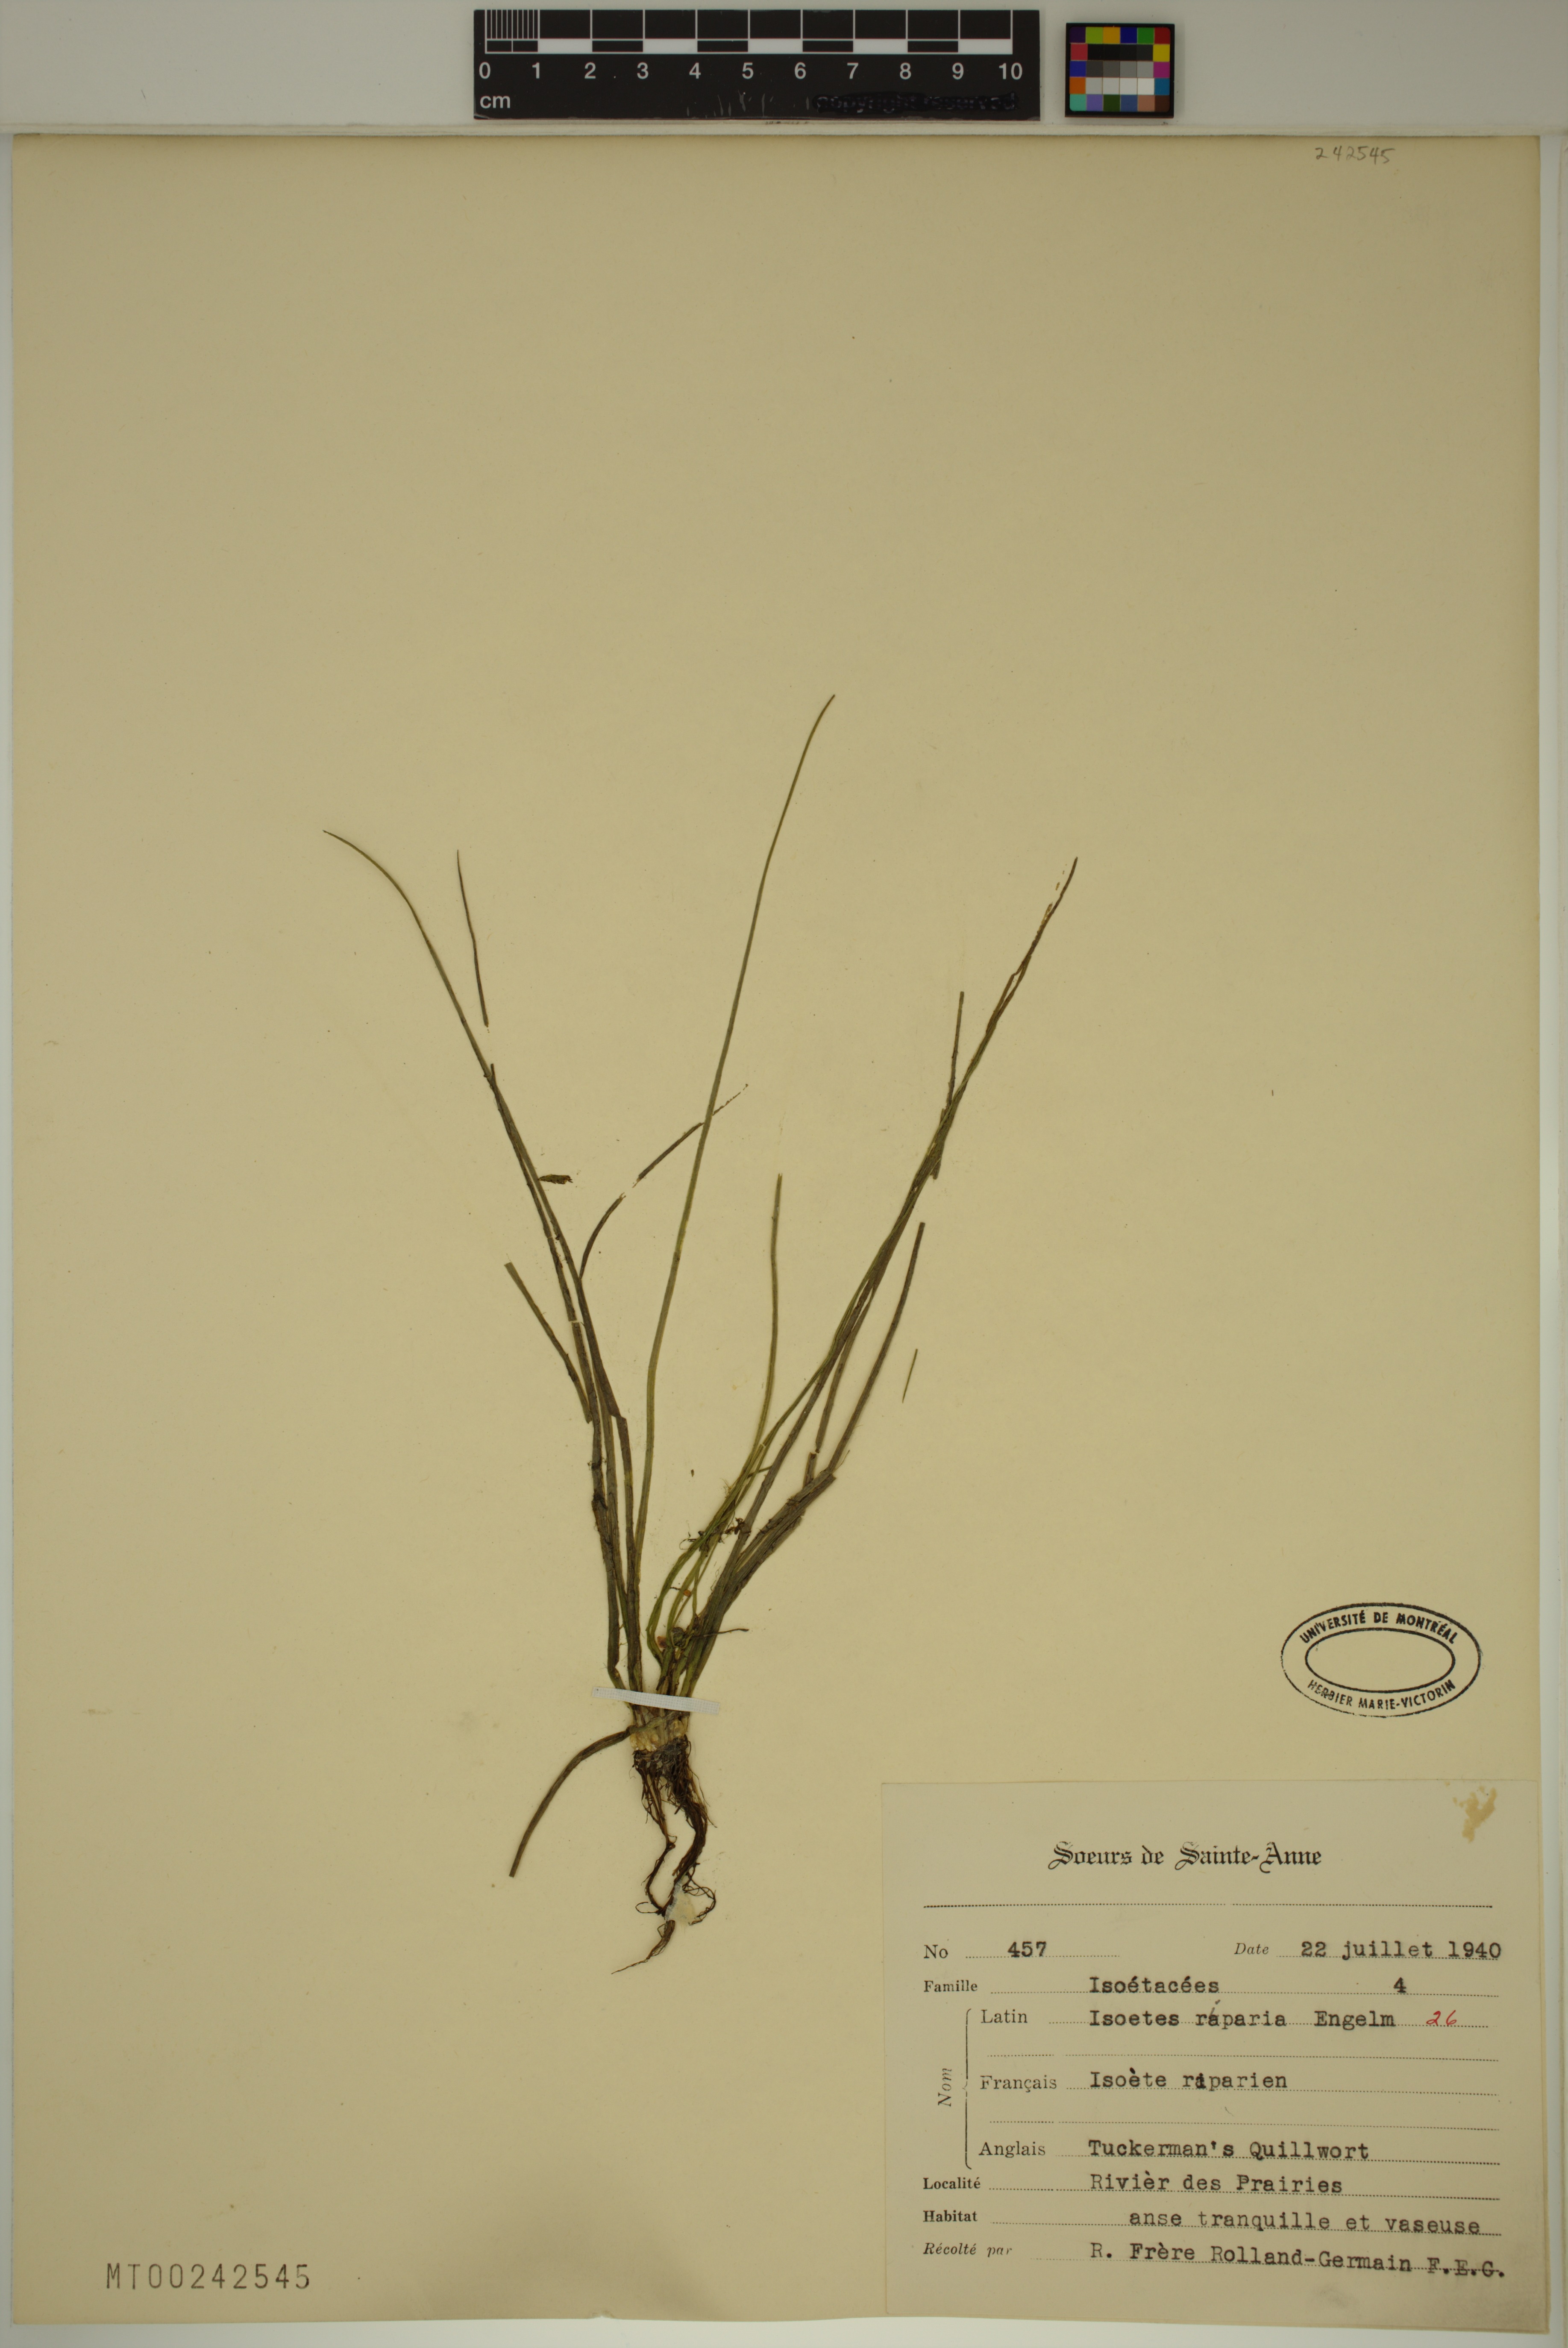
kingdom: Plantae
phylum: Tracheophyta
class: Lycopodiopsida
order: Isoetales
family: Isoetaceae
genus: Isoetes
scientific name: Isoetes septentrionalis
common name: Northern quillwort
